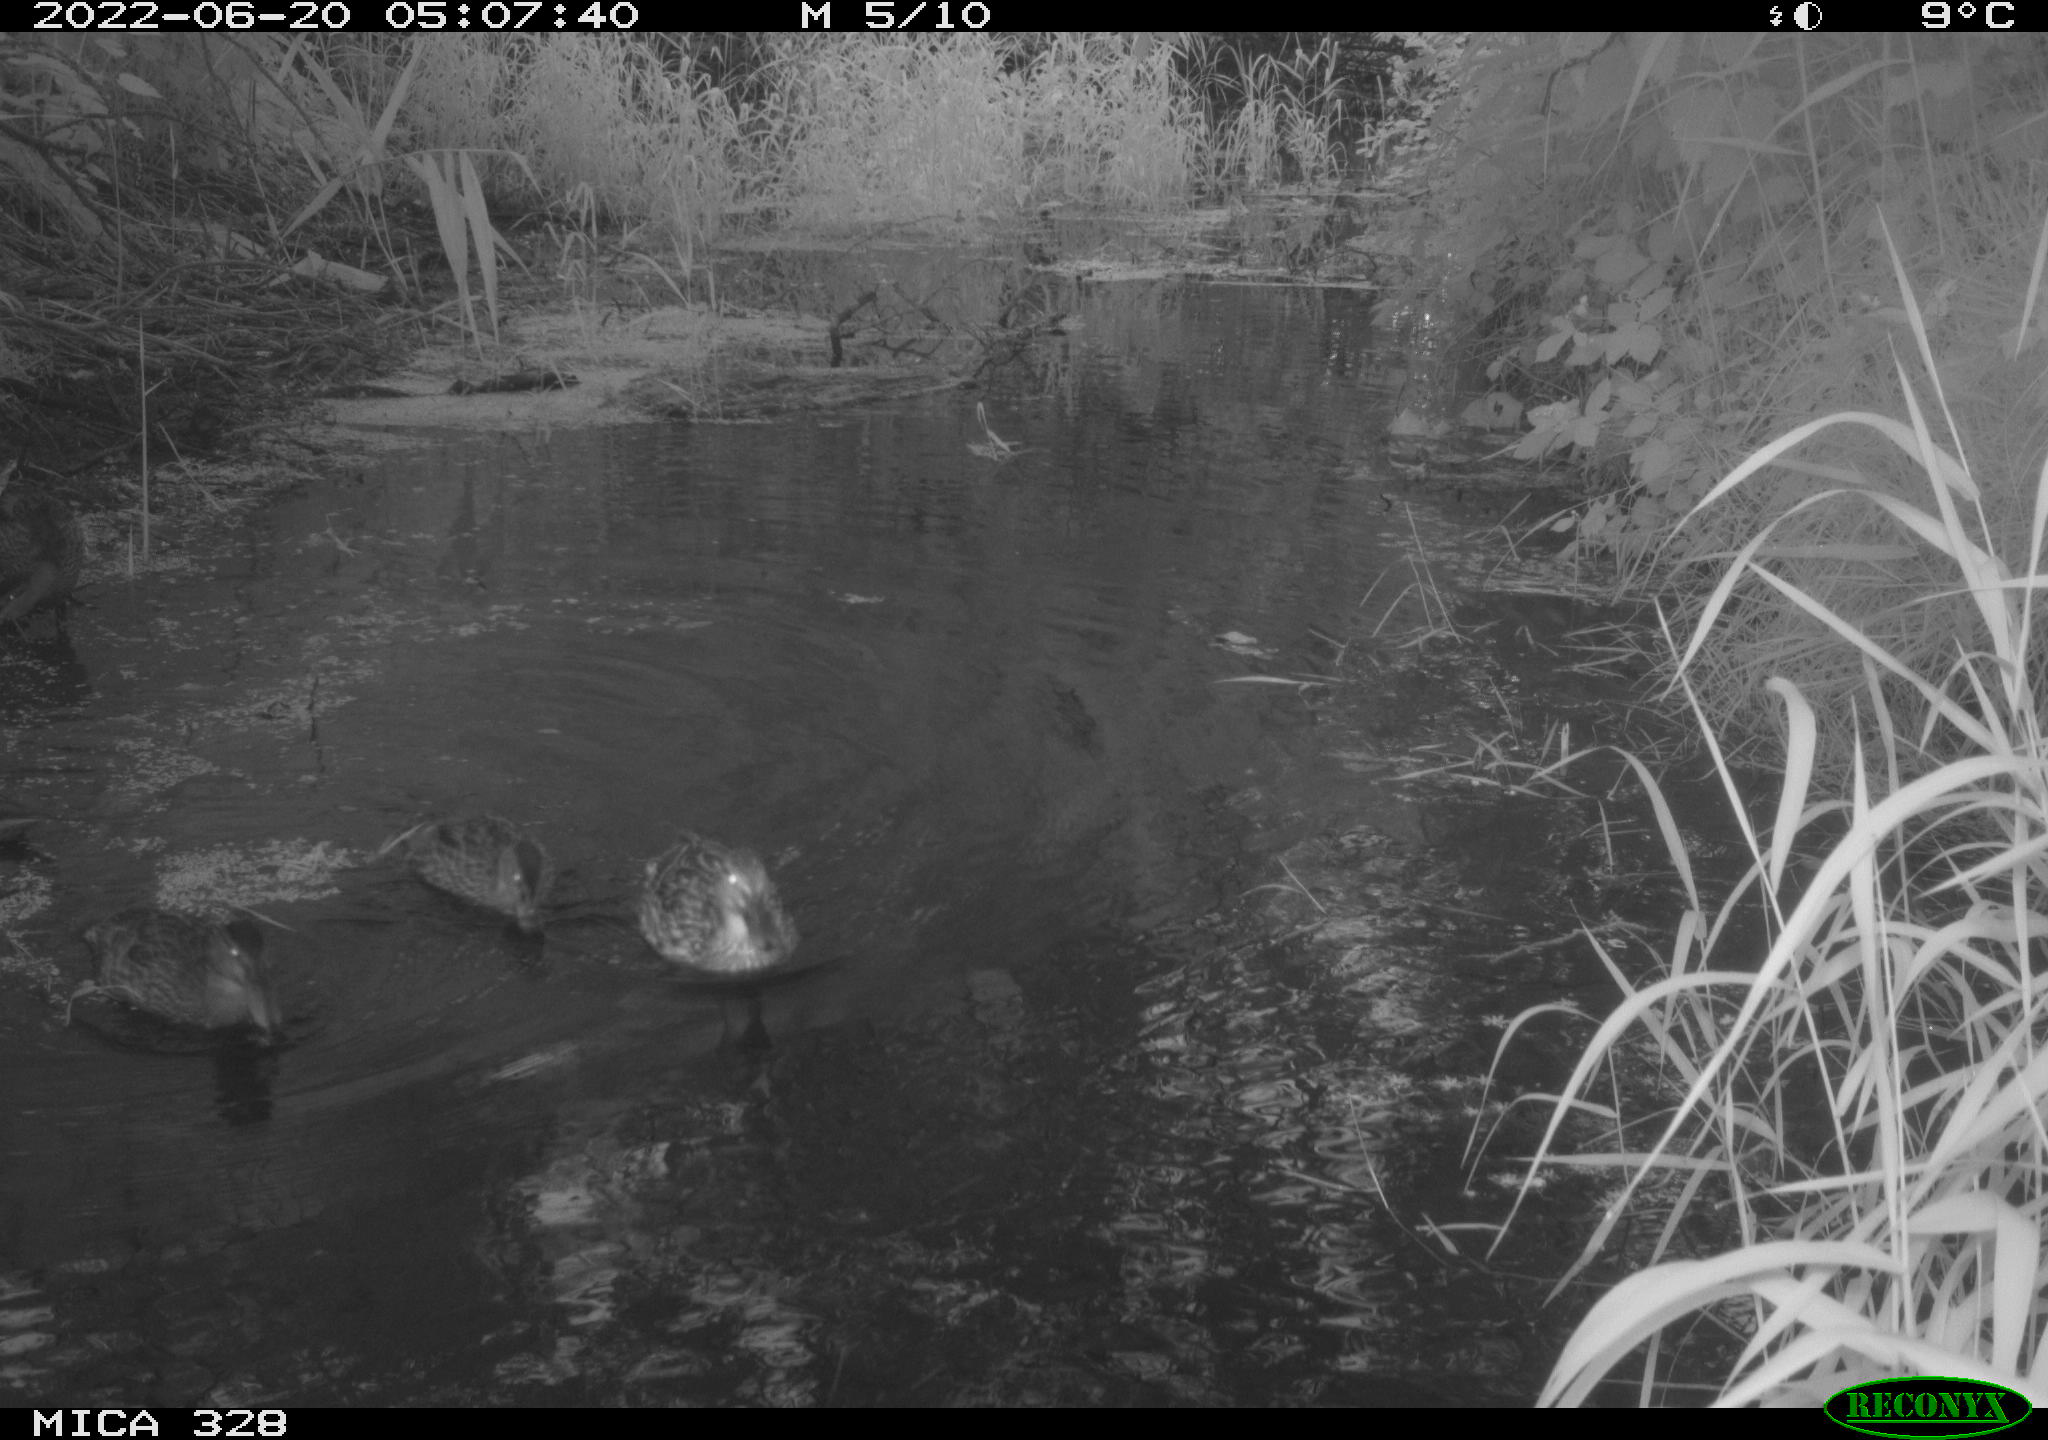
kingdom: Animalia
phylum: Chordata
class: Aves
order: Anseriformes
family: Anatidae
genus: Anas
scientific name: Anas
